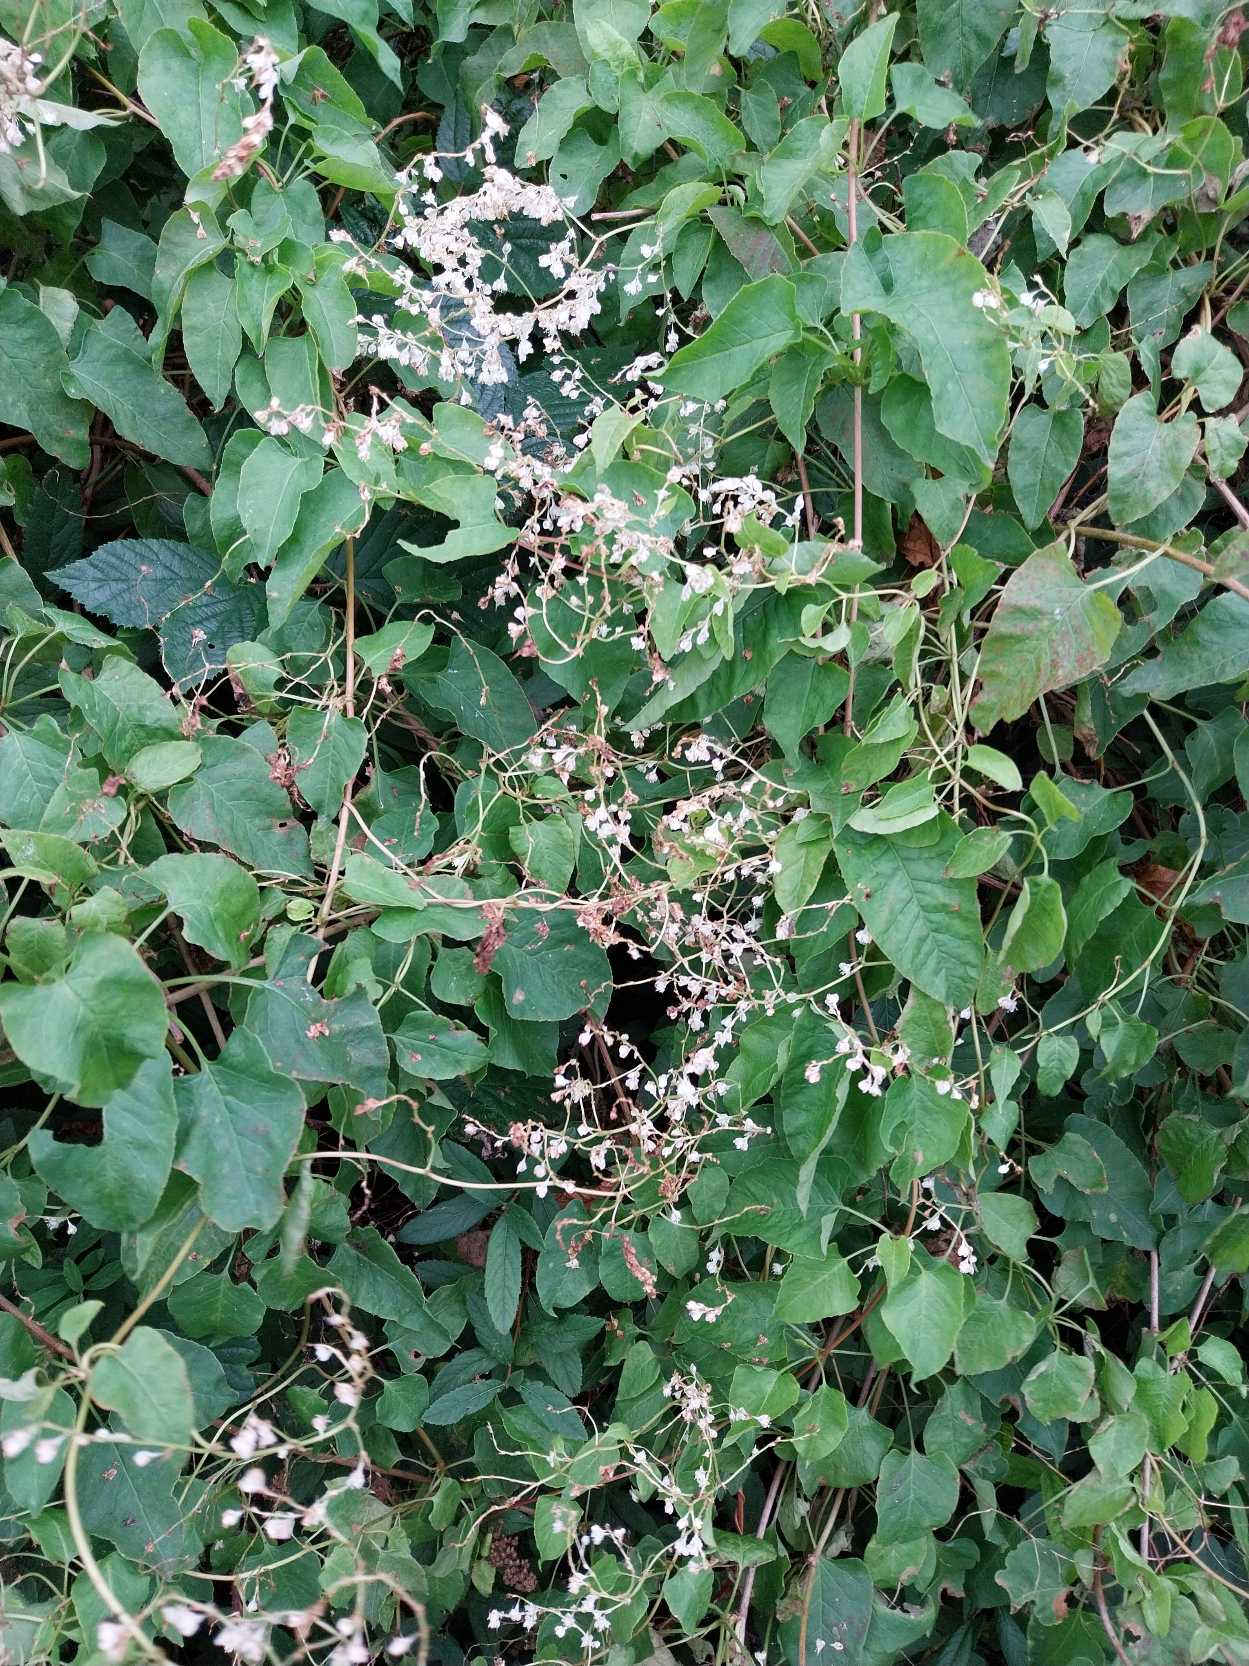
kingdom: Plantae
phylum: Tracheophyta
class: Magnoliopsida
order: Caryophyllales
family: Polygonaceae
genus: Fallopia
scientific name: Fallopia baldschuanica
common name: Sølvregn
